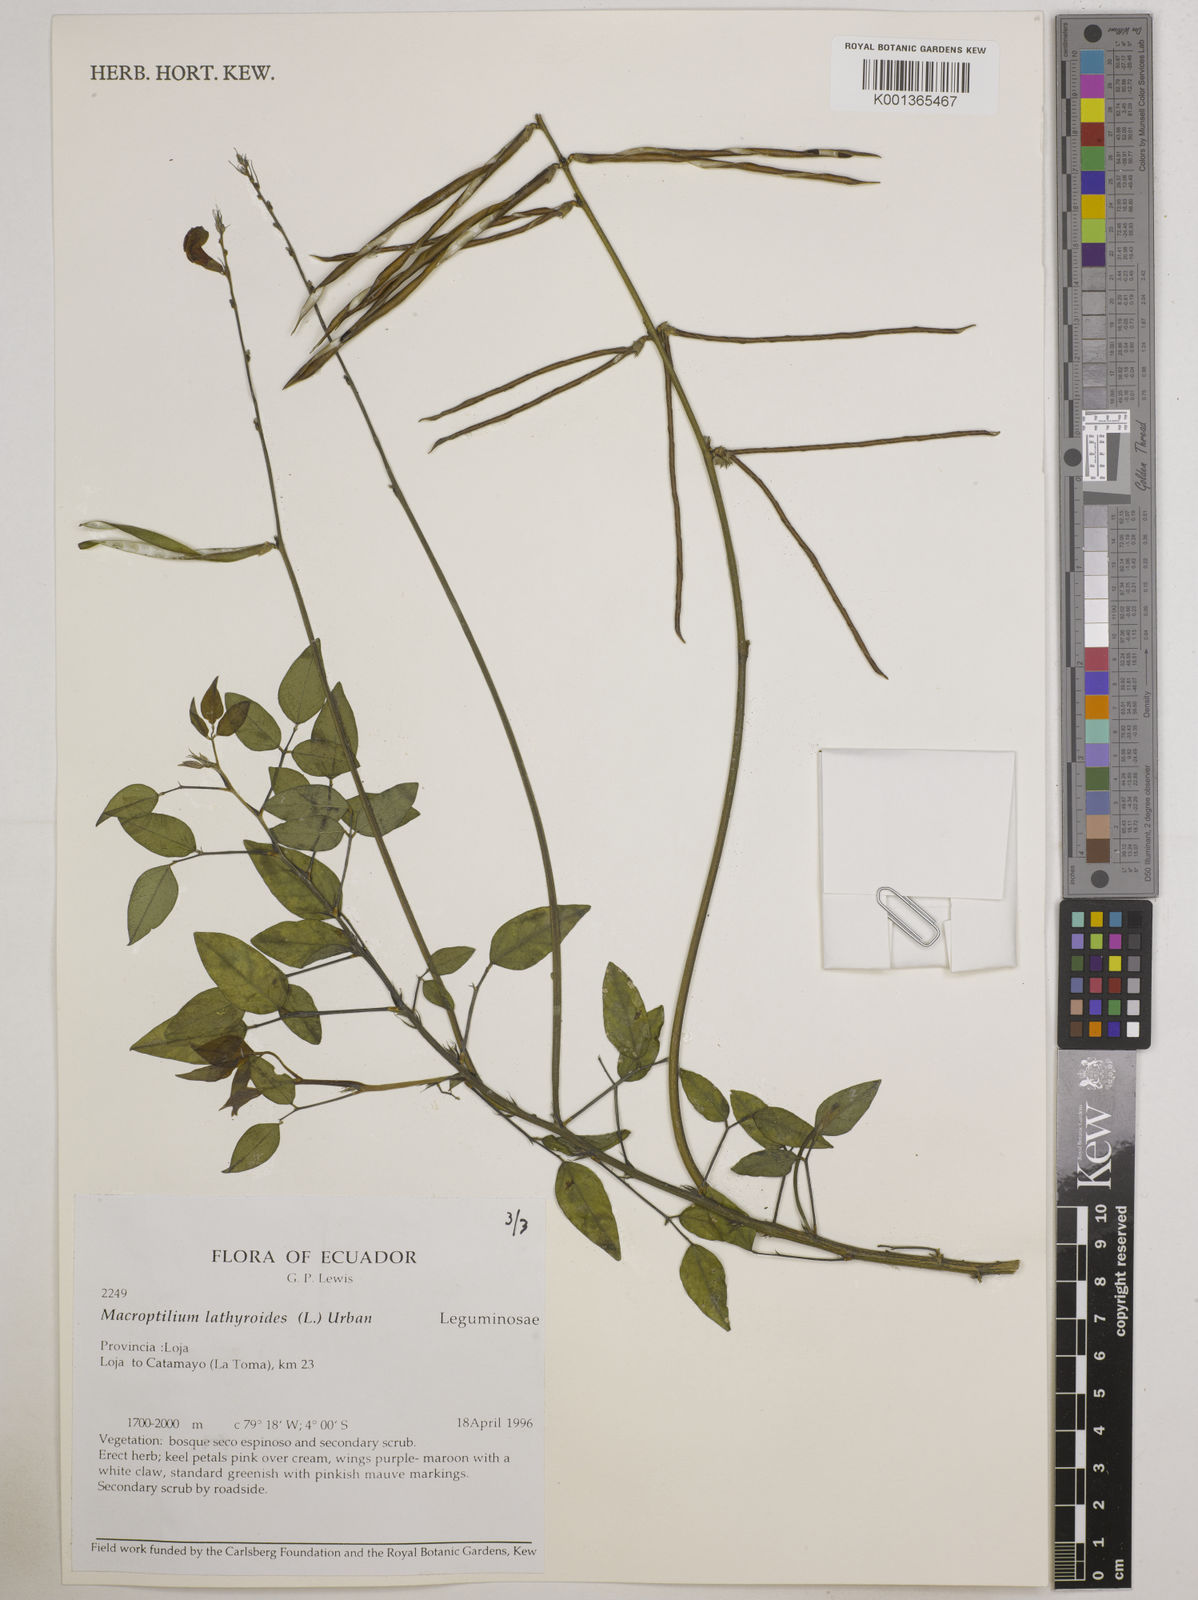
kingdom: Plantae
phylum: Tracheophyta
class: Magnoliopsida
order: Fabales
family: Fabaceae
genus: Macroptilium
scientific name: Macroptilium lathyroides
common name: Wild bushbean
